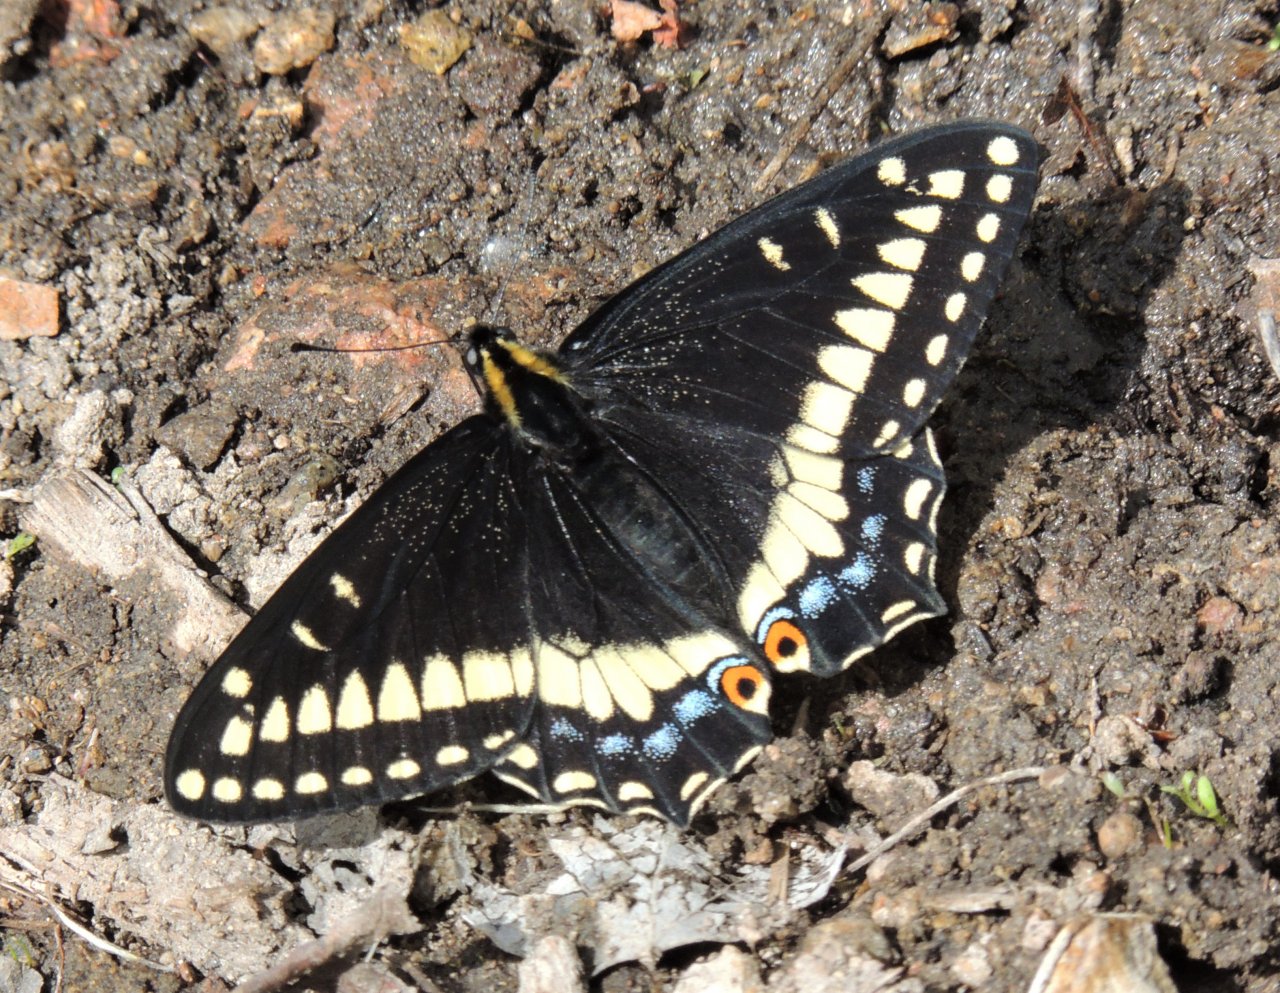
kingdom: Animalia
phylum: Arthropoda
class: Insecta
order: Lepidoptera
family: Papilionidae
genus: Papilio
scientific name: Papilio indra
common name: Indra Swallowtail
